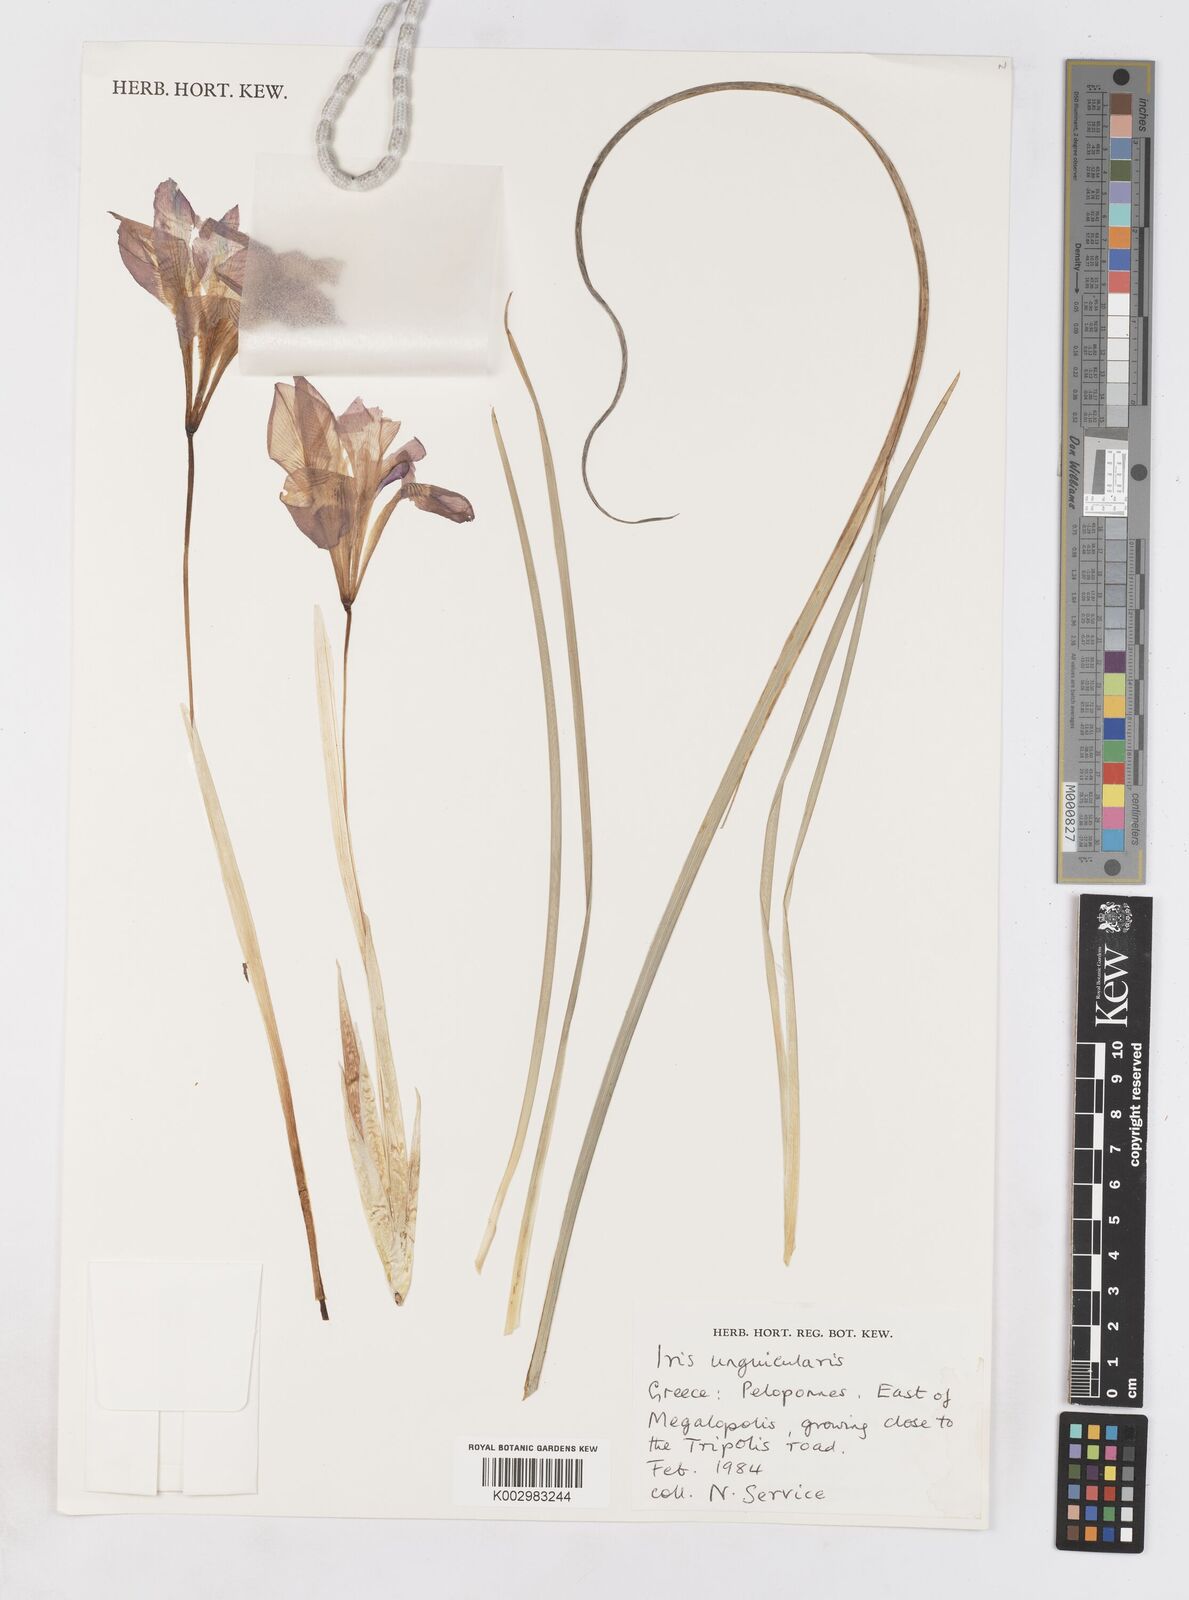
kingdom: Plantae
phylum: Tracheophyta
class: Liliopsida
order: Asparagales
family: Iridaceae
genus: Iris
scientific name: Iris unguicularis
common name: Algerian iris
